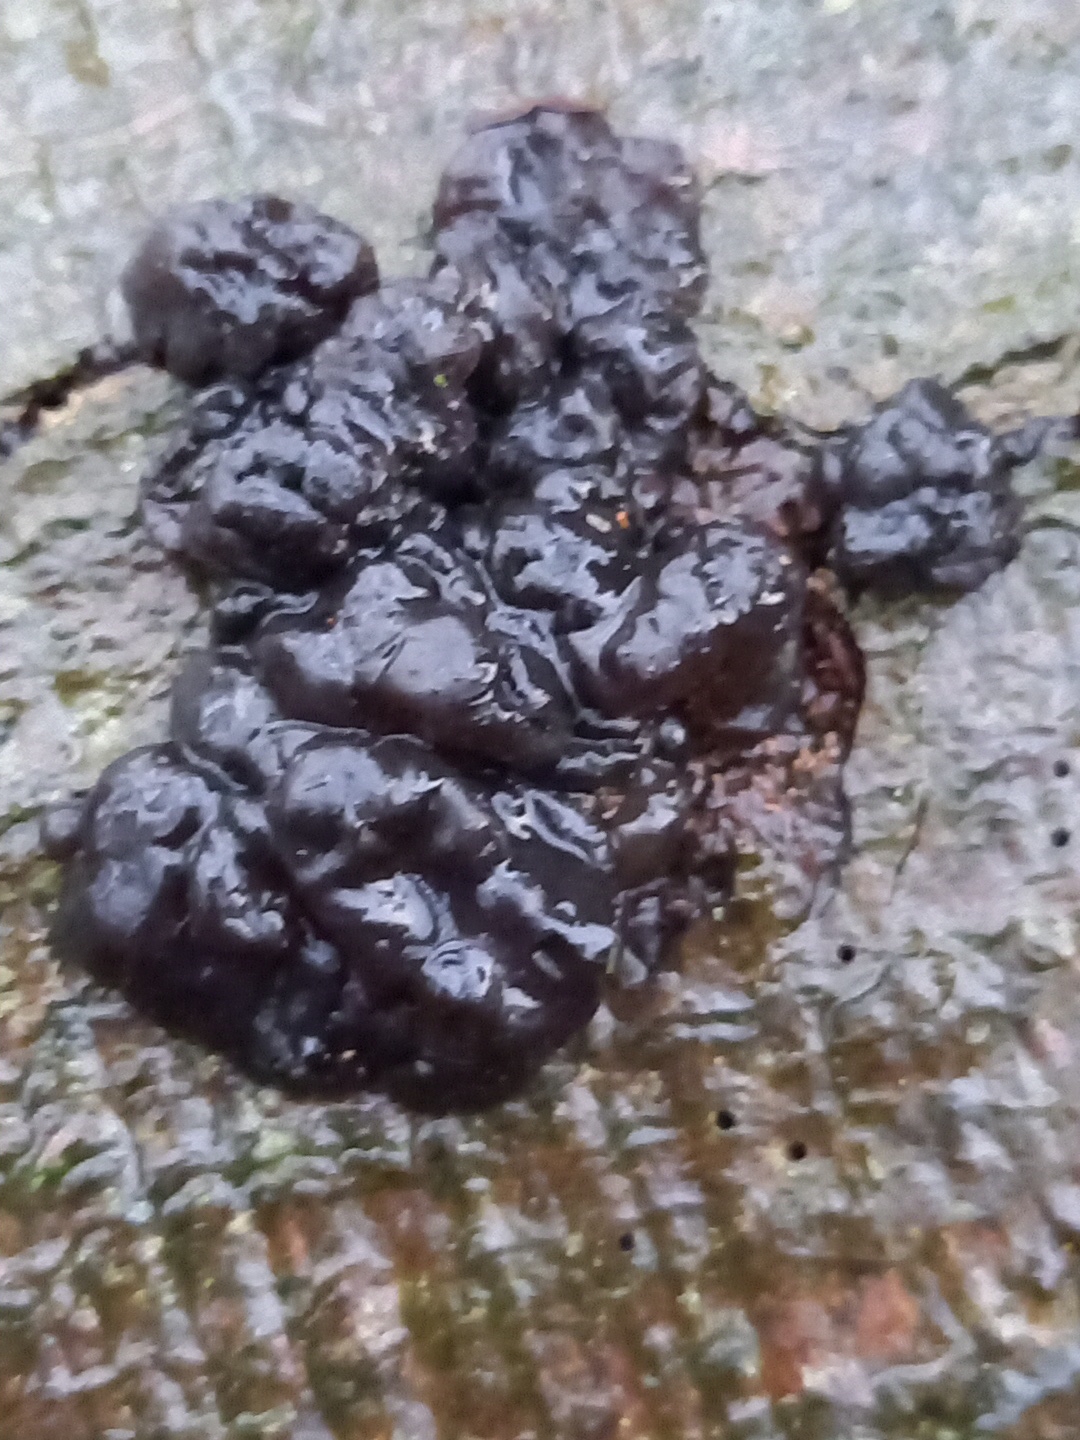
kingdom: Fungi
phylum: Basidiomycota
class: Agaricomycetes
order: Auriculariales
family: Auriculariaceae
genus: Exidia
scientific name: Exidia nigricans
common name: almindelig bævretop
